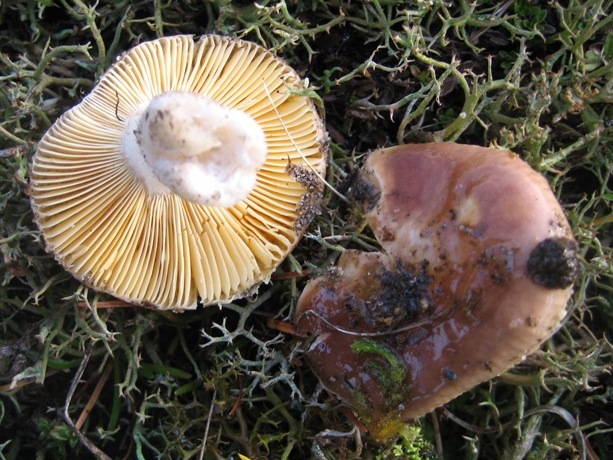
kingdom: Fungi
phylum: Basidiomycota
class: Agaricomycetes
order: Russulales
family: Russulaceae
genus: Russula
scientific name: Russula cessans
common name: fyrre-skørhat
